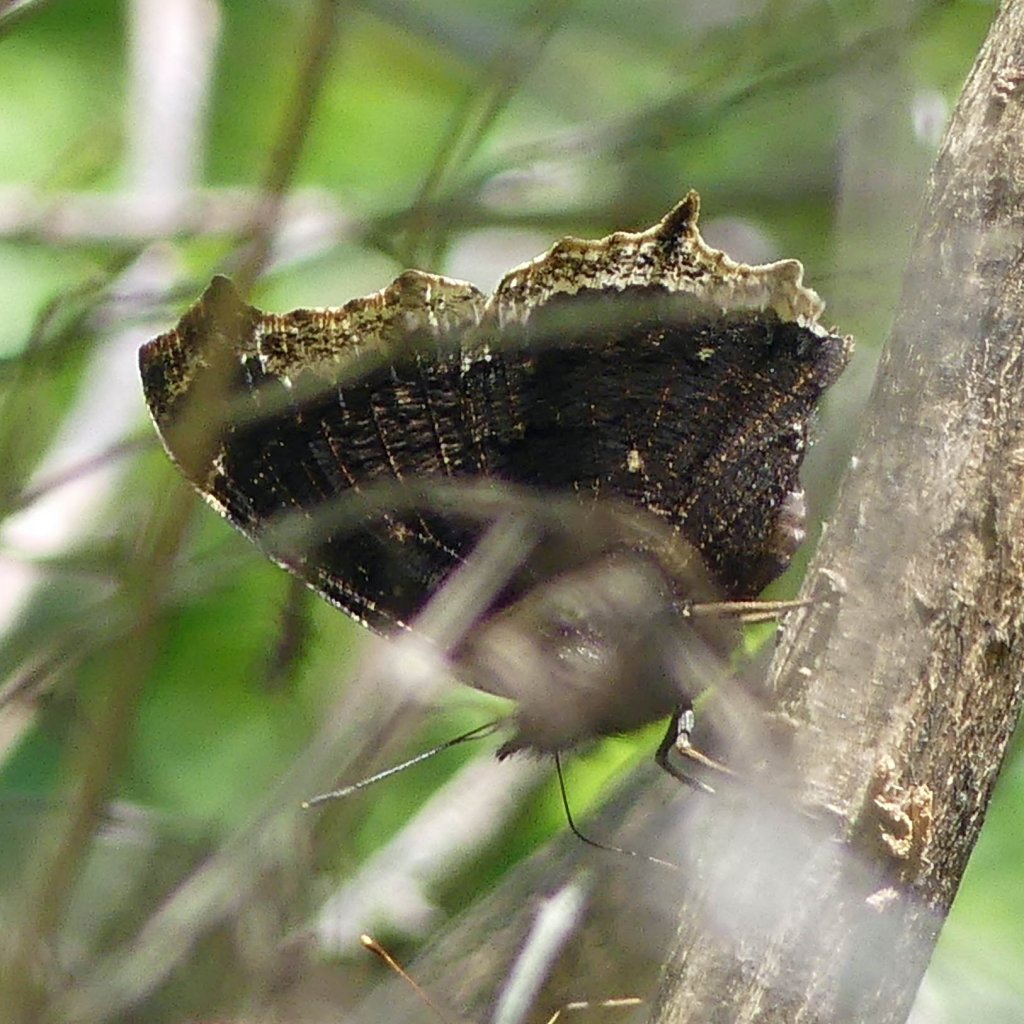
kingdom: Animalia
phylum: Arthropoda
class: Insecta
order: Lepidoptera
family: Nymphalidae
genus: Nymphalis
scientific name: Nymphalis antiopa
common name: Mourning Cloak
